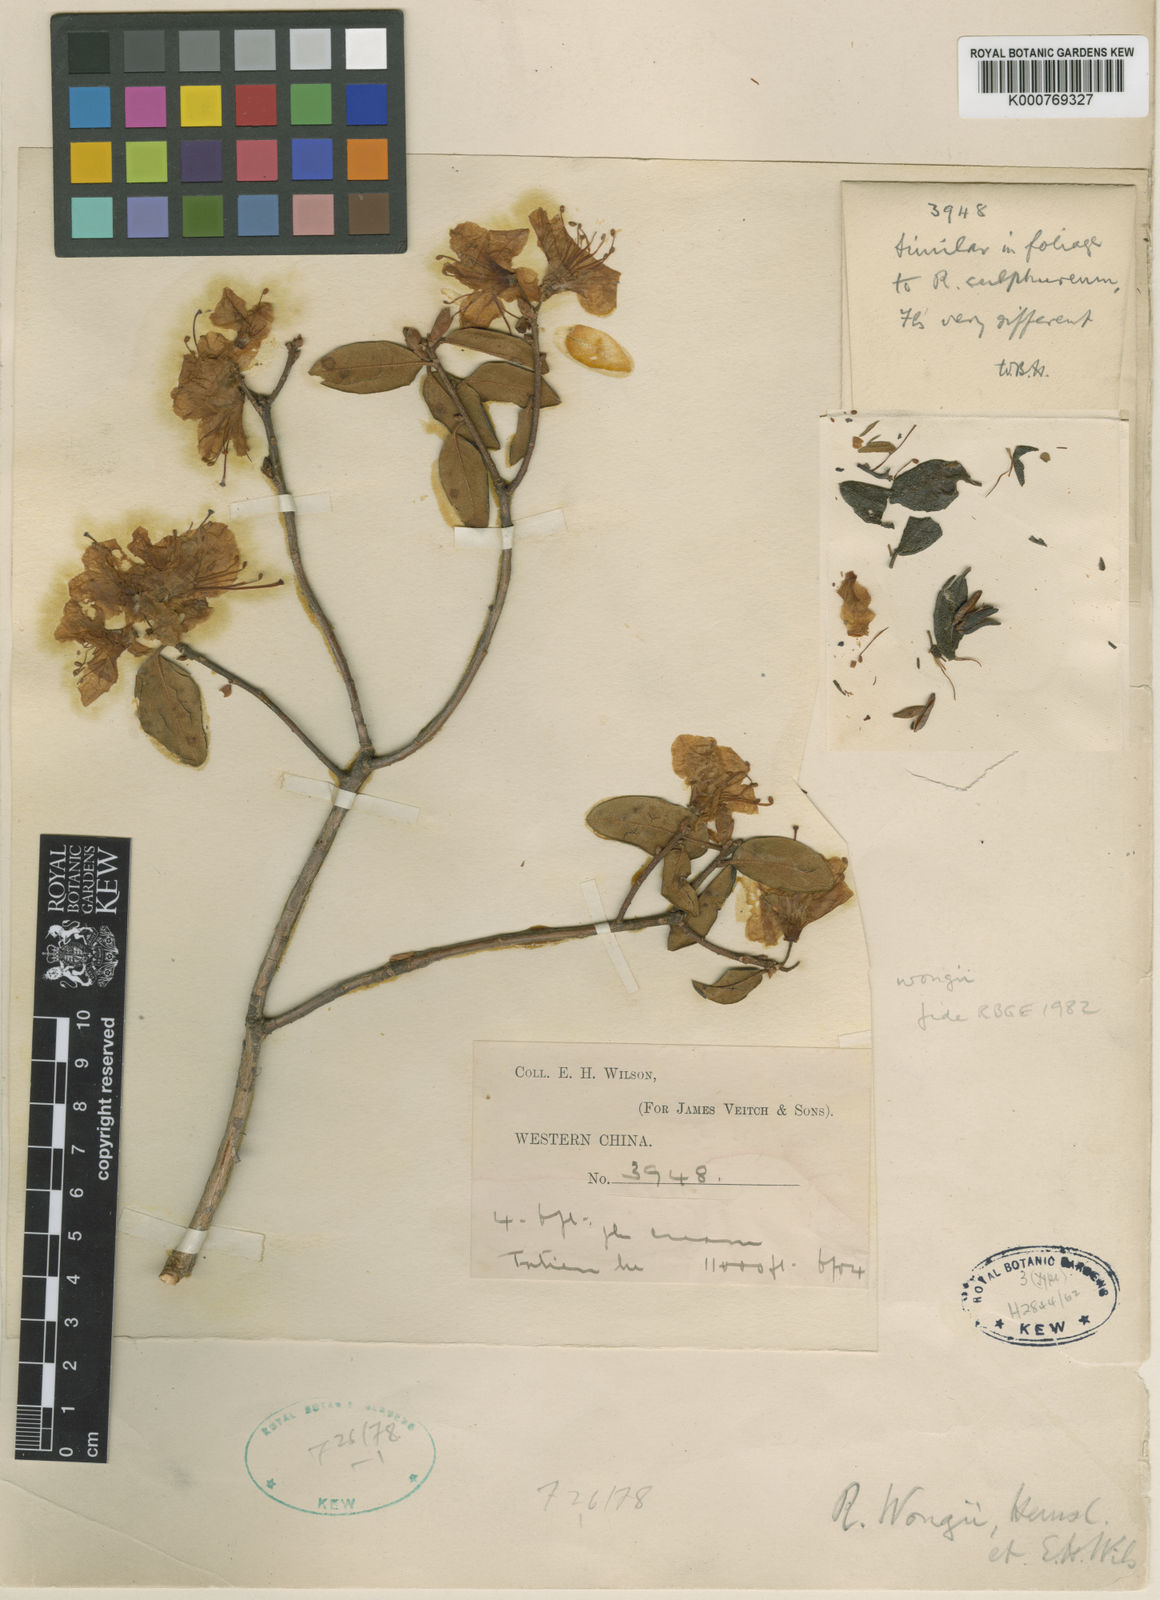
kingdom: Plantae
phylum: Tracheophyta
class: Magnoliopsida
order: Ericales
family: Ericaceae
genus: Rhododendron
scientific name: Rhododendron wongii
